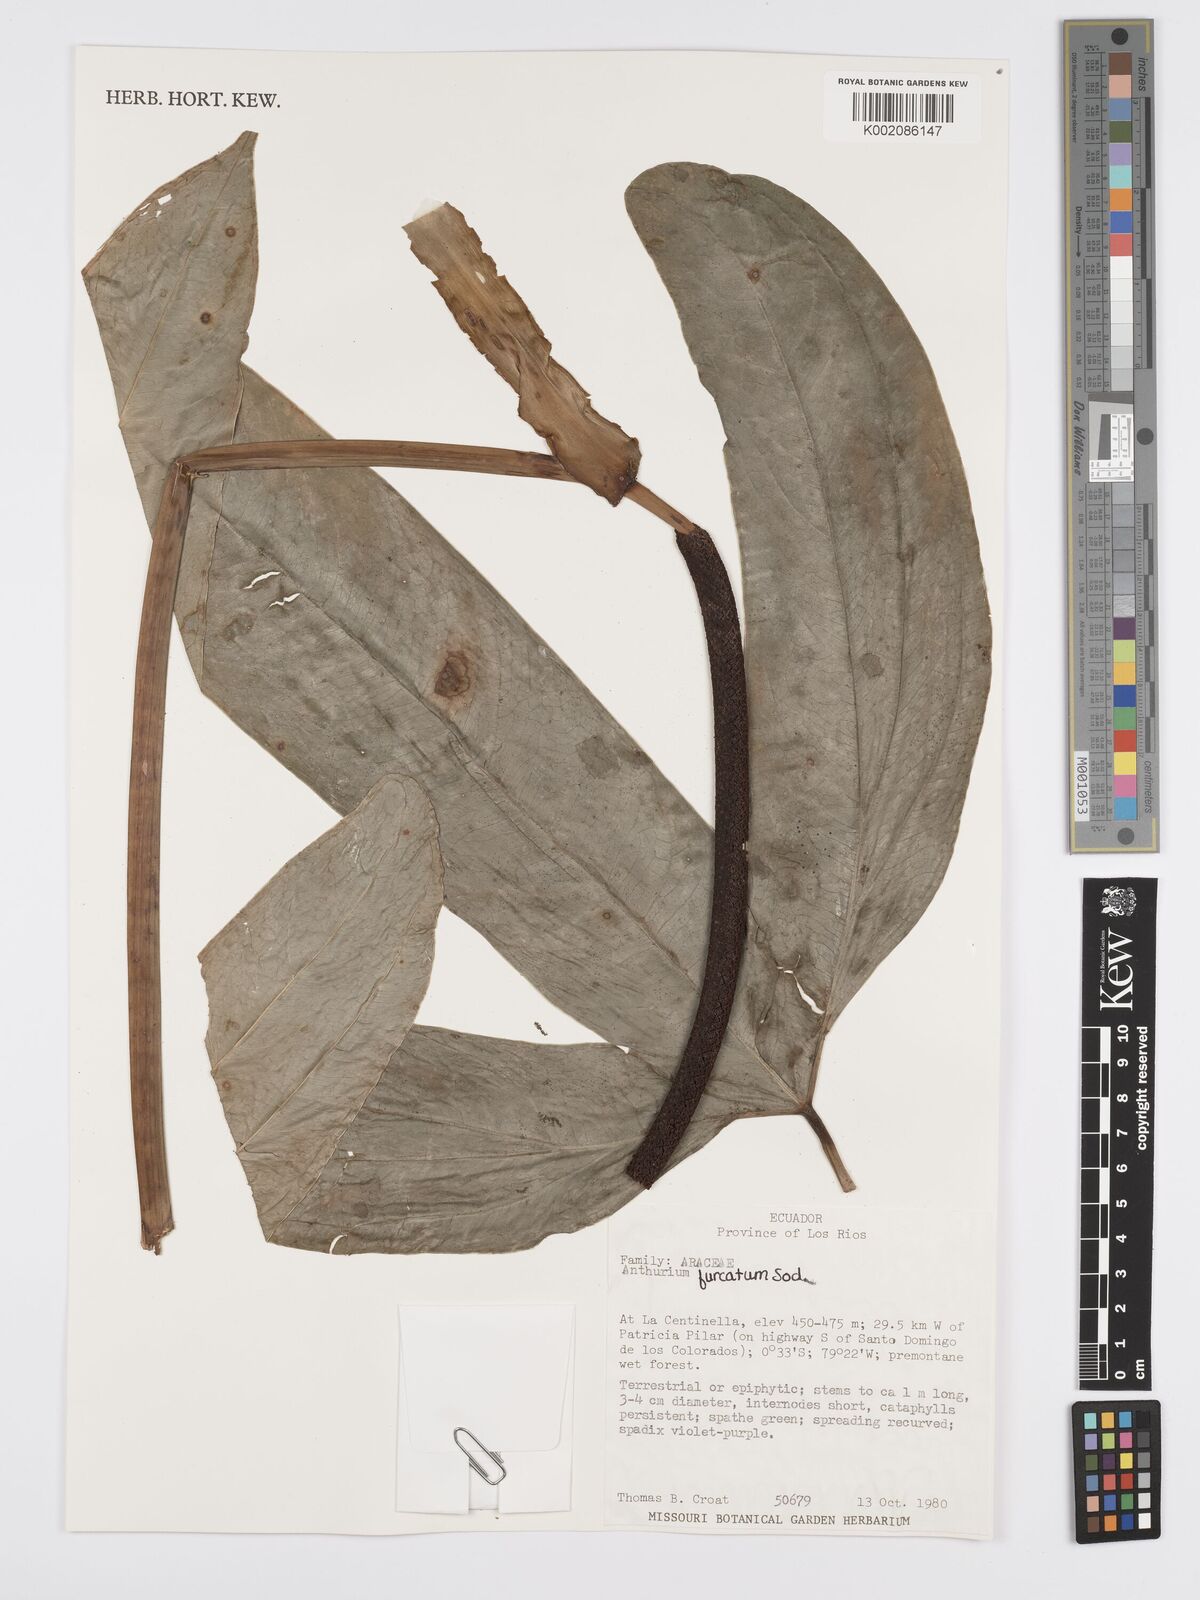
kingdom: Plantae
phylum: Tracheophyta
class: Liliopsida
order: Alismatales
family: Araceae
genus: Anthurium
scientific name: Anthurium furcatum
